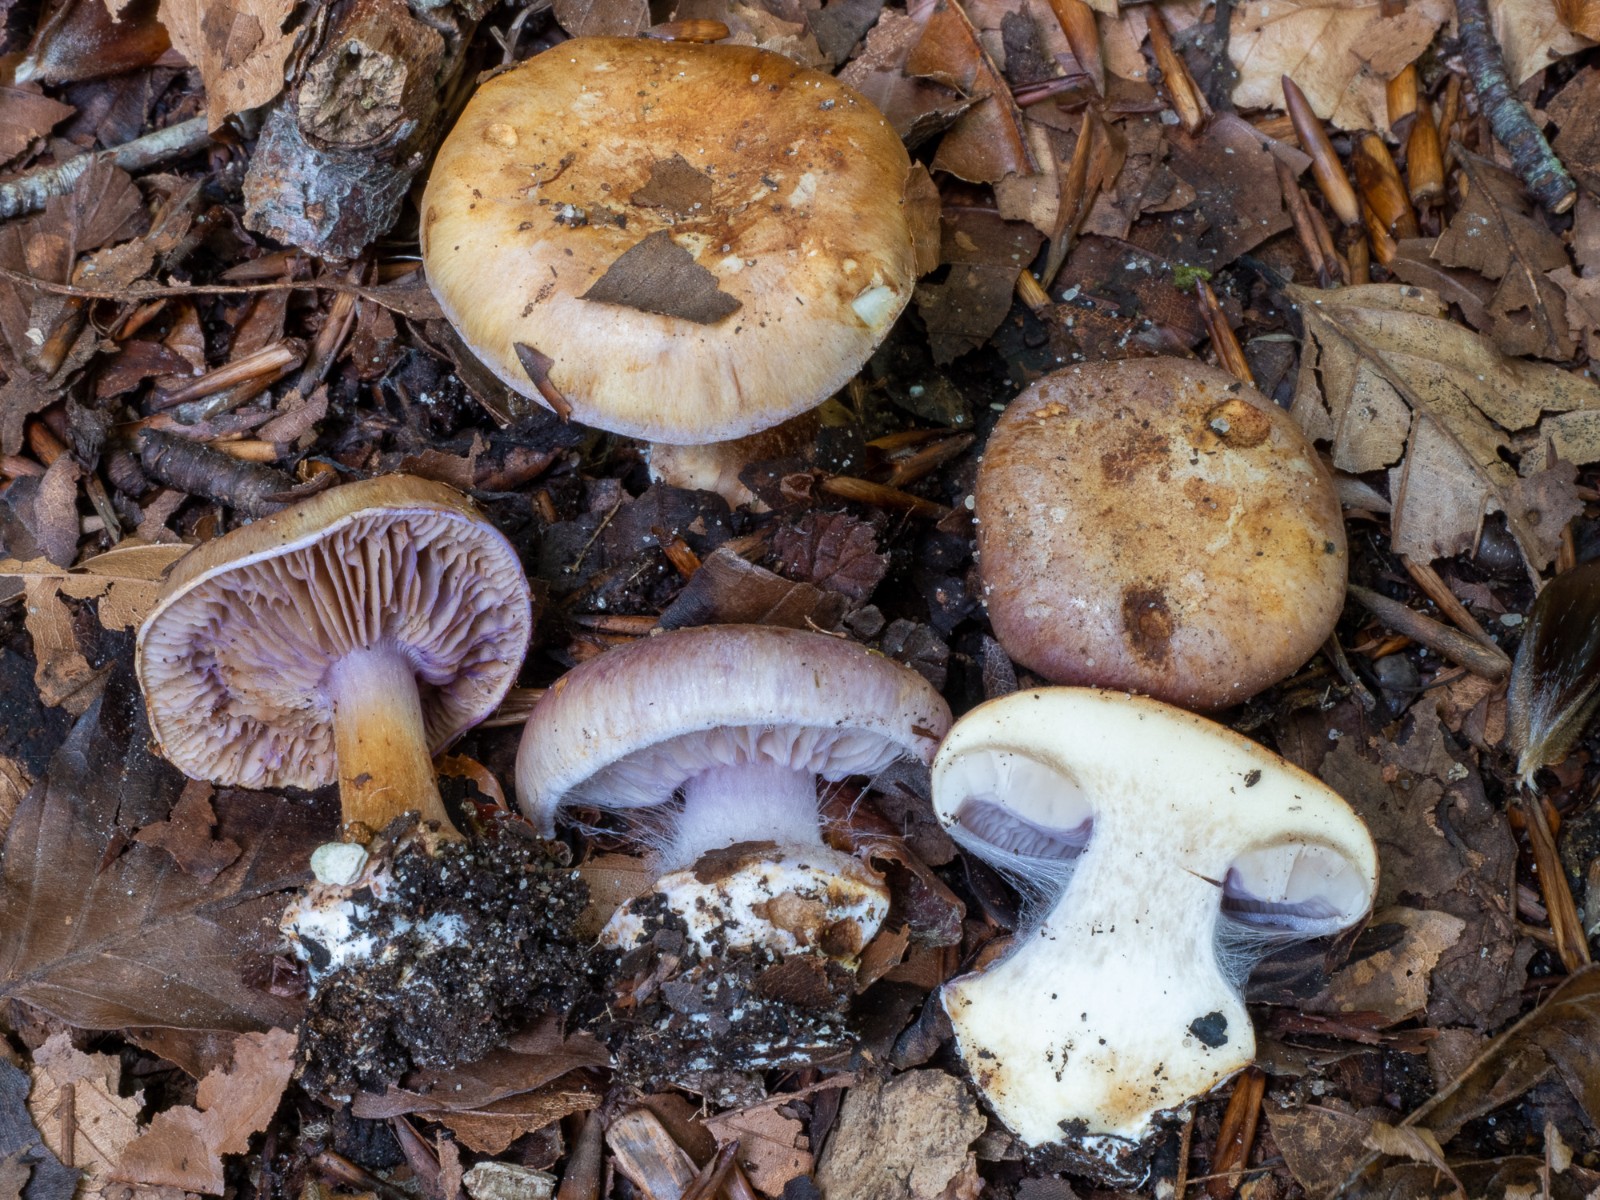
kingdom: Fungi
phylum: Basidiomycota
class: Agaricomycetes
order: Agaricales
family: Cortinariaceae
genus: Calonarius
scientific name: Calonarius selandicus
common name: sjællandsk slørhat
